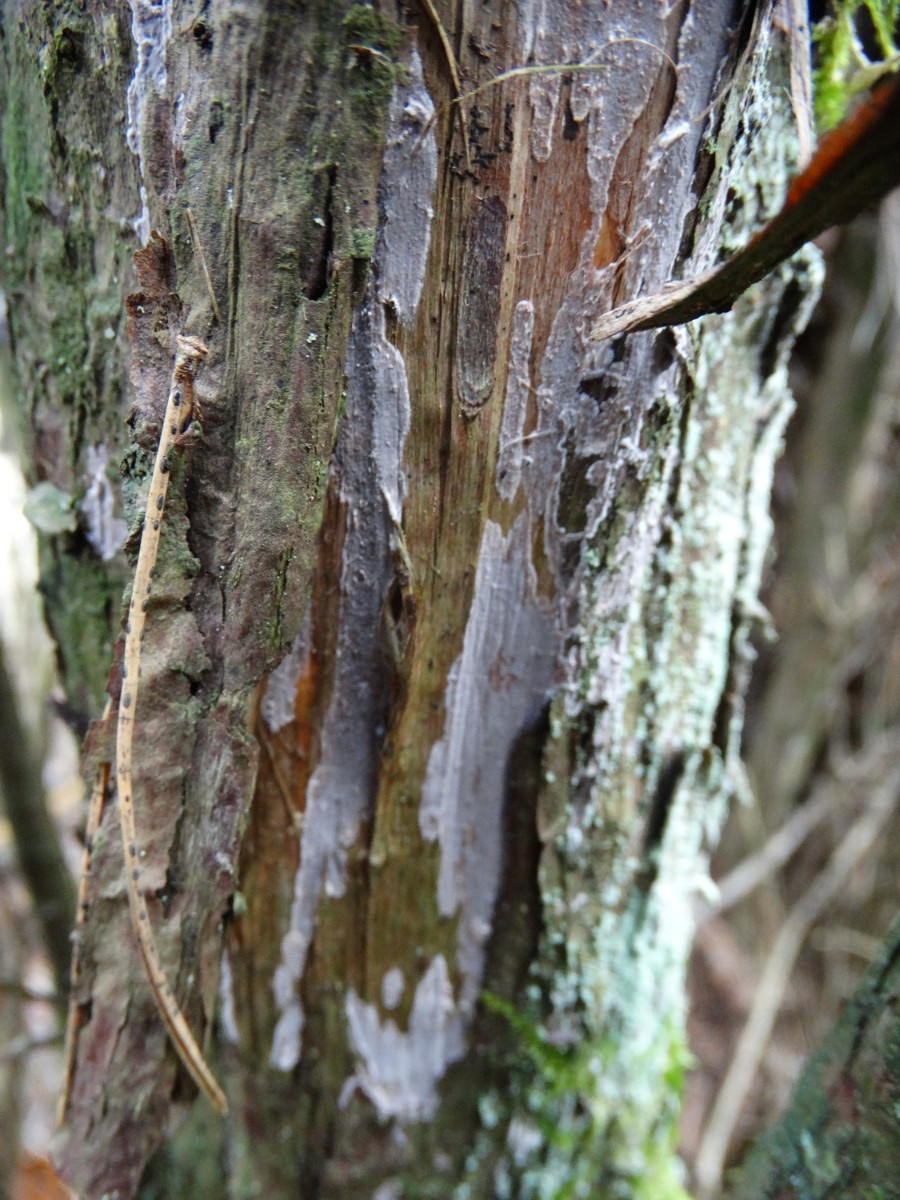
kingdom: Fungi
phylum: Basidiomycota
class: Agaricomycetes
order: Russulales
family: Echinodontiaceae
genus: Amylostereum
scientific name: Amylostereum laevigatum
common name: ene-lædersvamp
